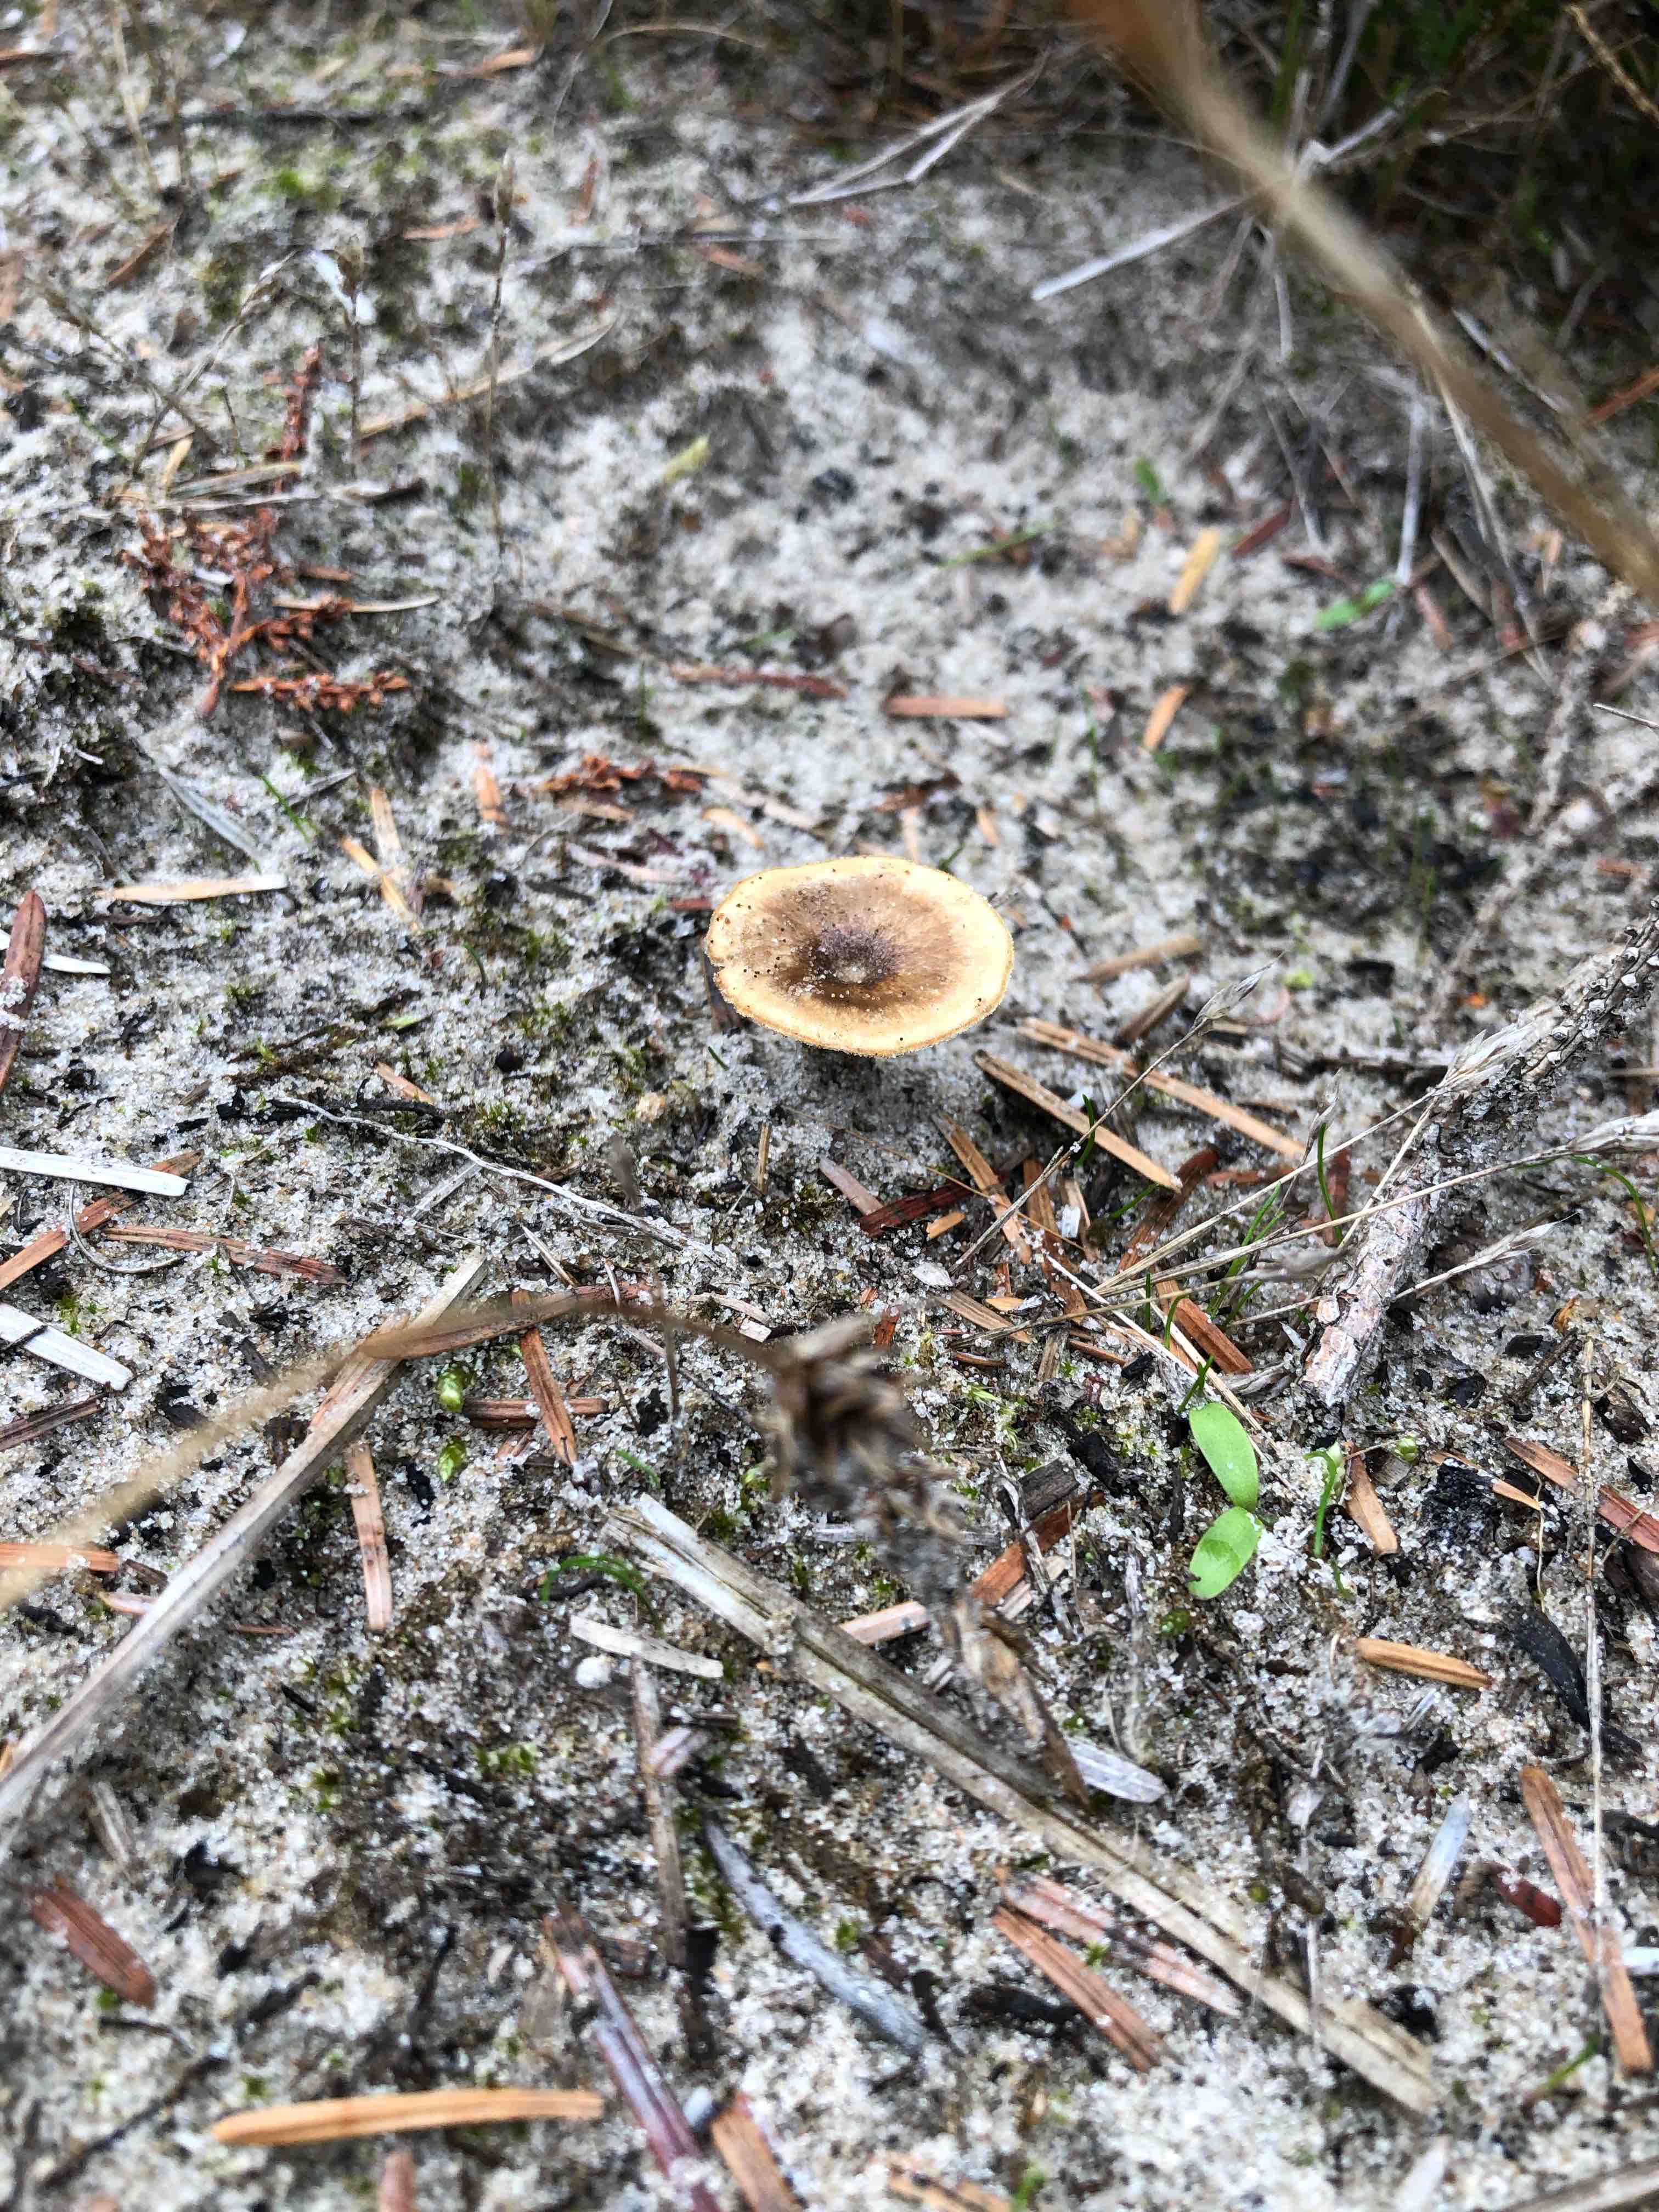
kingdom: Fungi
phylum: Basidiomycota
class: Agaricomycetes
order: Hymenochaetales
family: Hymenochaetaceae
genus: Coltricia
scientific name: Coltricia perennis
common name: almindelig sandporesvamp
